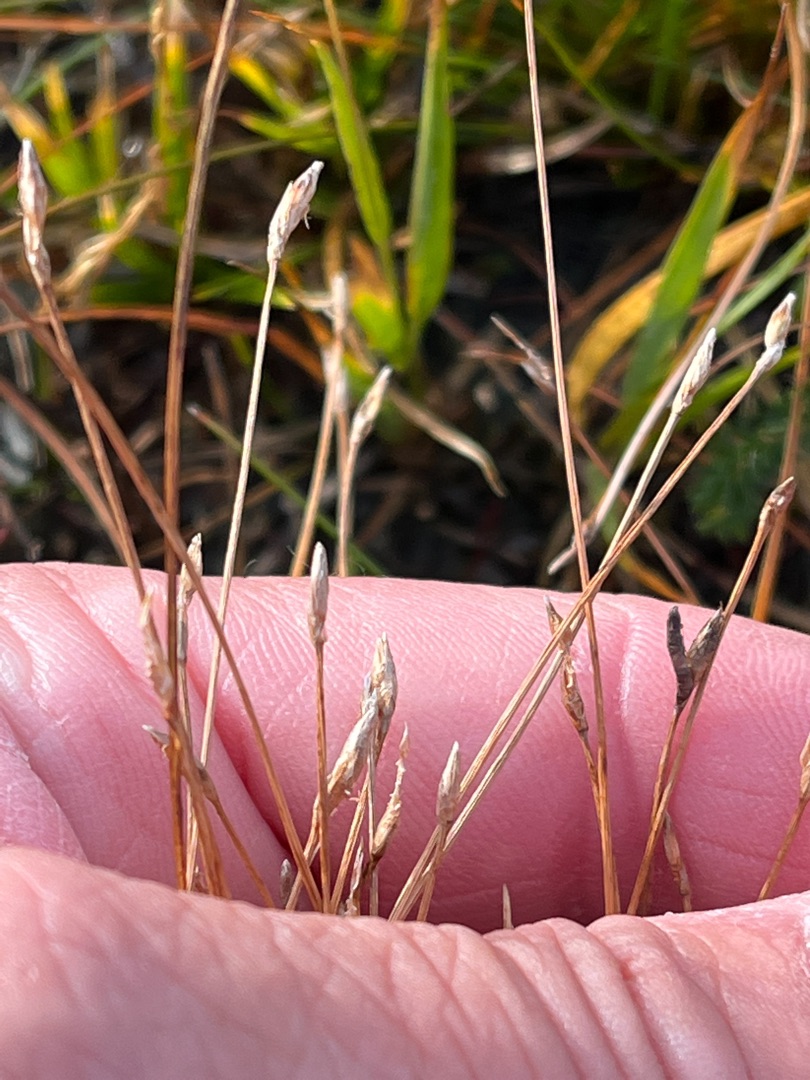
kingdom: Plantae
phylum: Tracheophyta
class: Liliopsida
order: Poales
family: Cyperaceae
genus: Eleocharis
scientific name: Eleocharis multicaulis
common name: Mangestænglet sumpstrå
